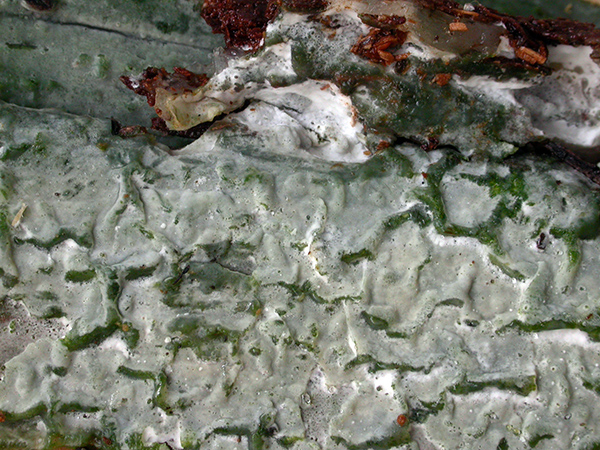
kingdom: Fungi
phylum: Basidiomycota
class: Agaricomycetes
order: Amylocorticiales
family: Amylocorticiaceae
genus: Amyloxenasma
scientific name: Amyloxenasma allantosporum
